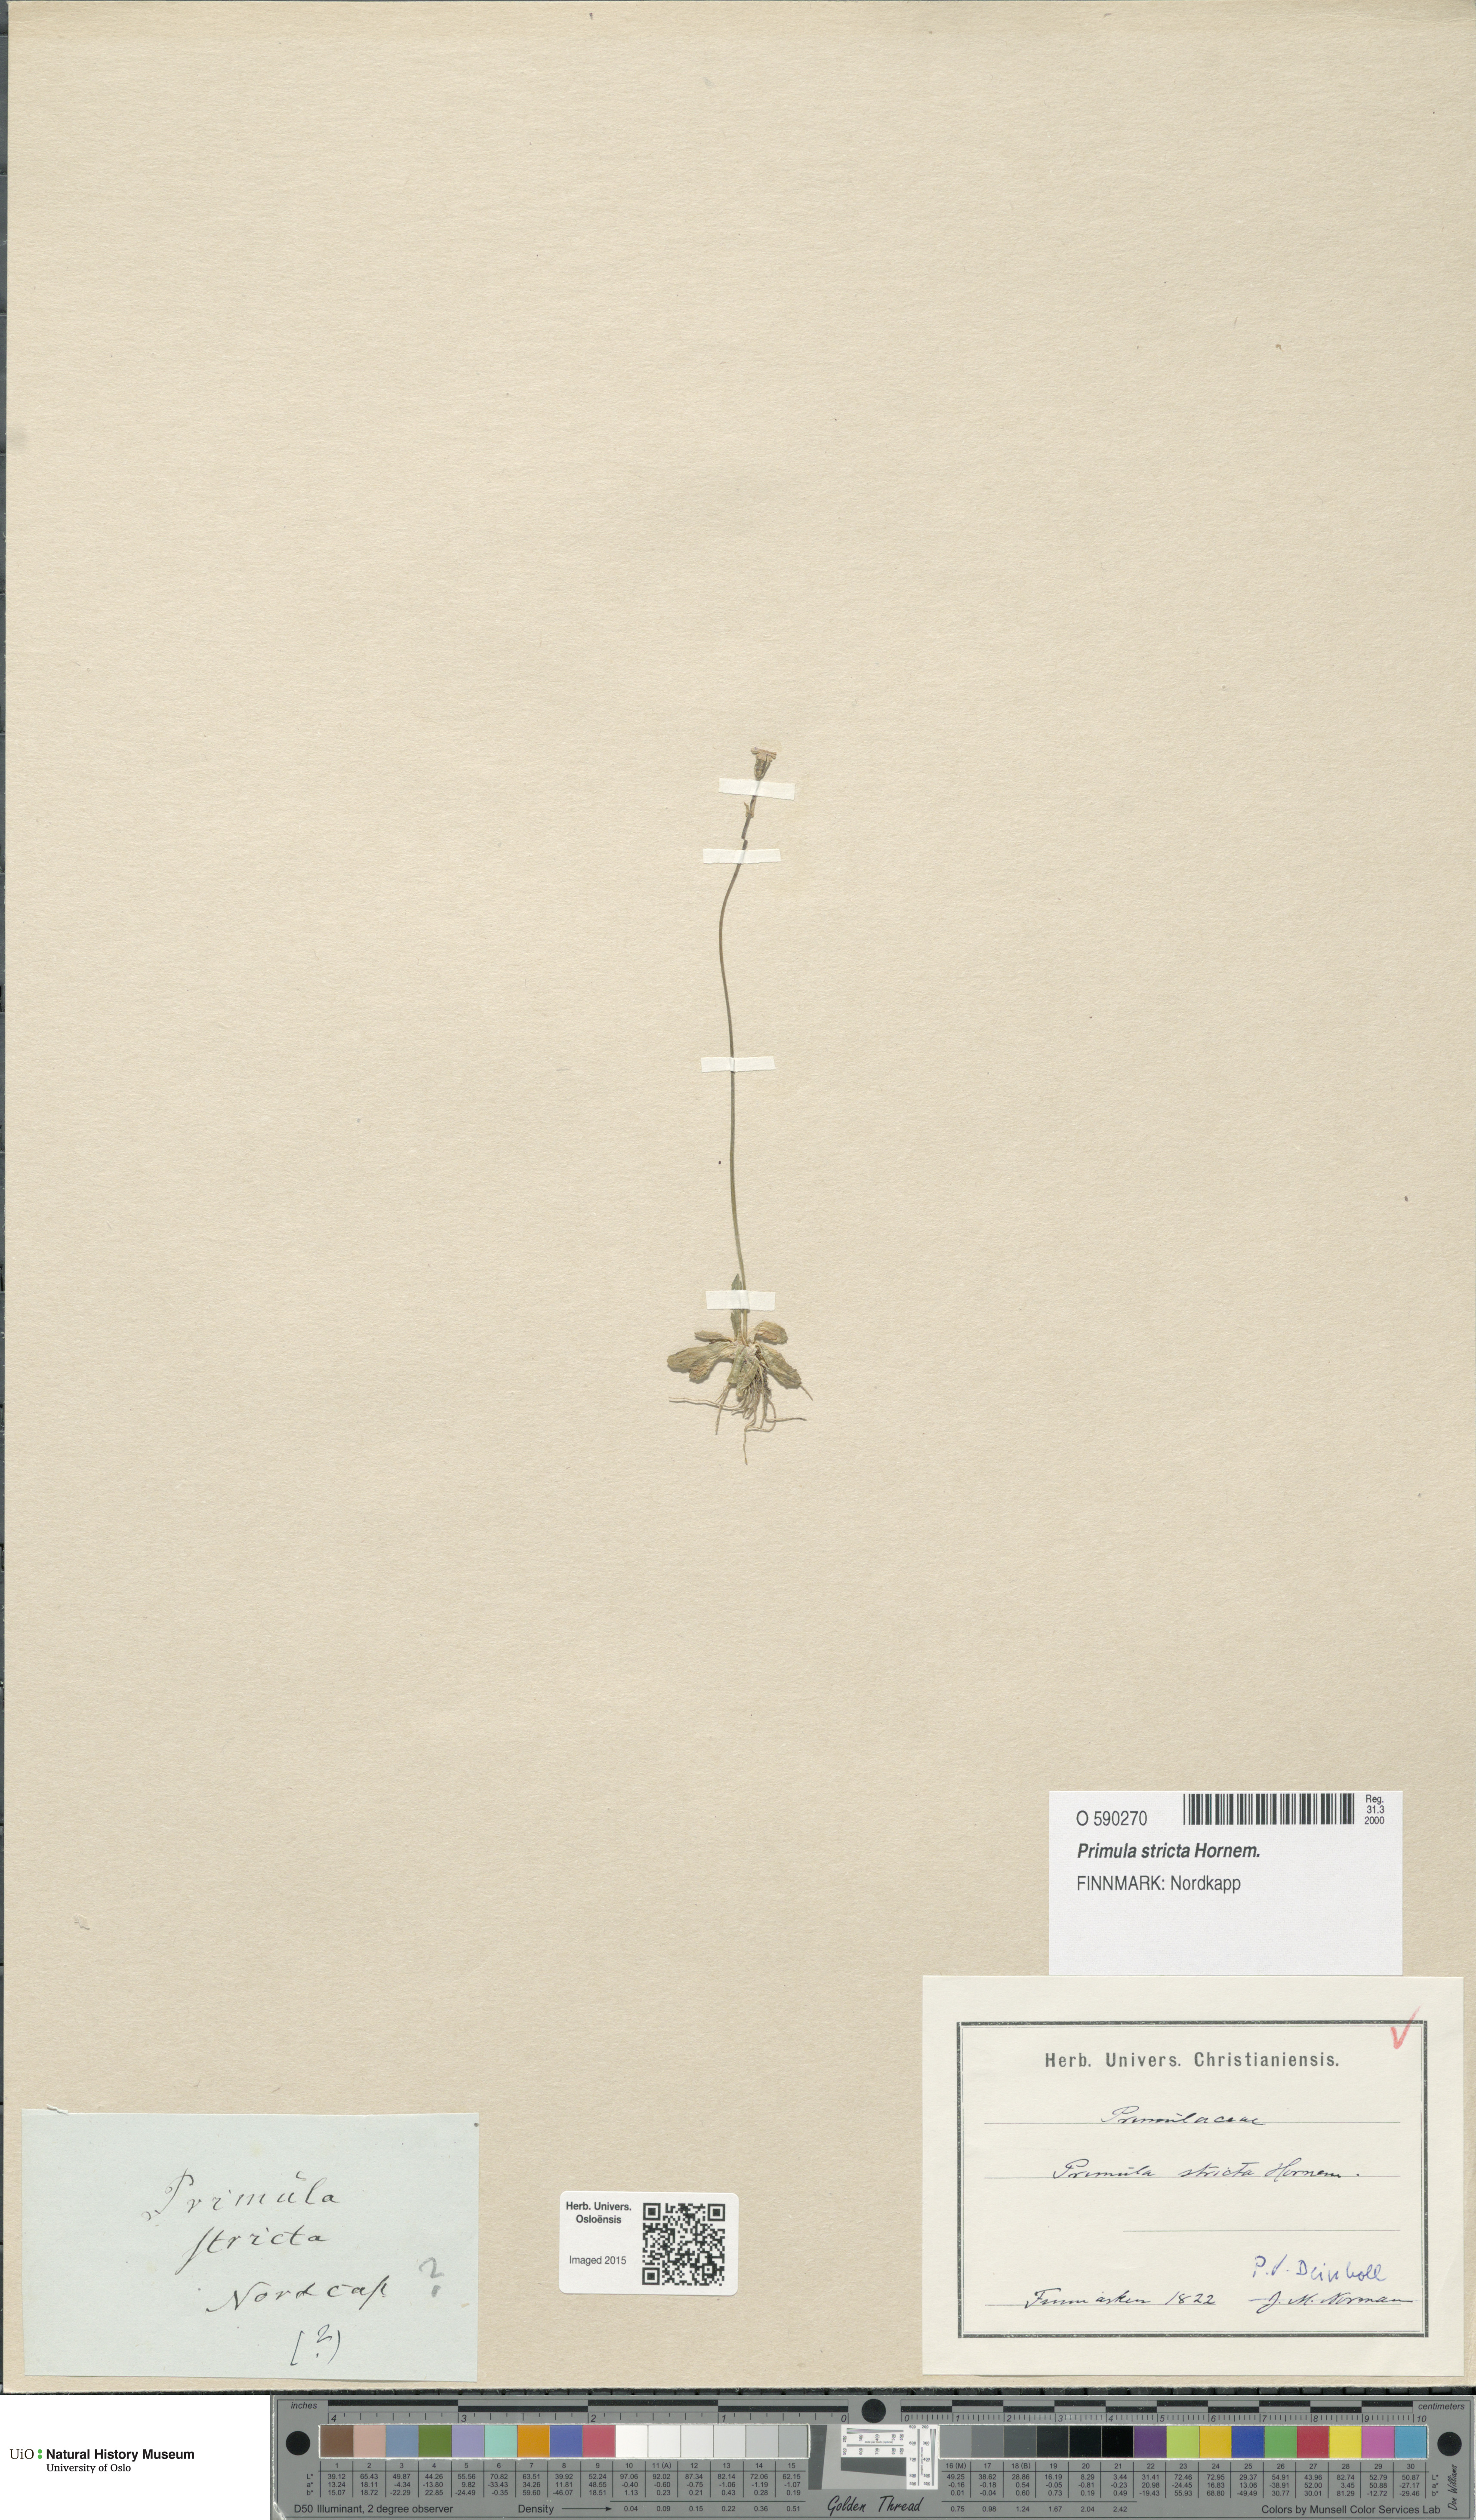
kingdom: Plantae
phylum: Tracheophyta
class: Magnoliopsida
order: Ericales
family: Primulaceae
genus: Primula
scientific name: Primula stricta
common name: Coastal primrose
